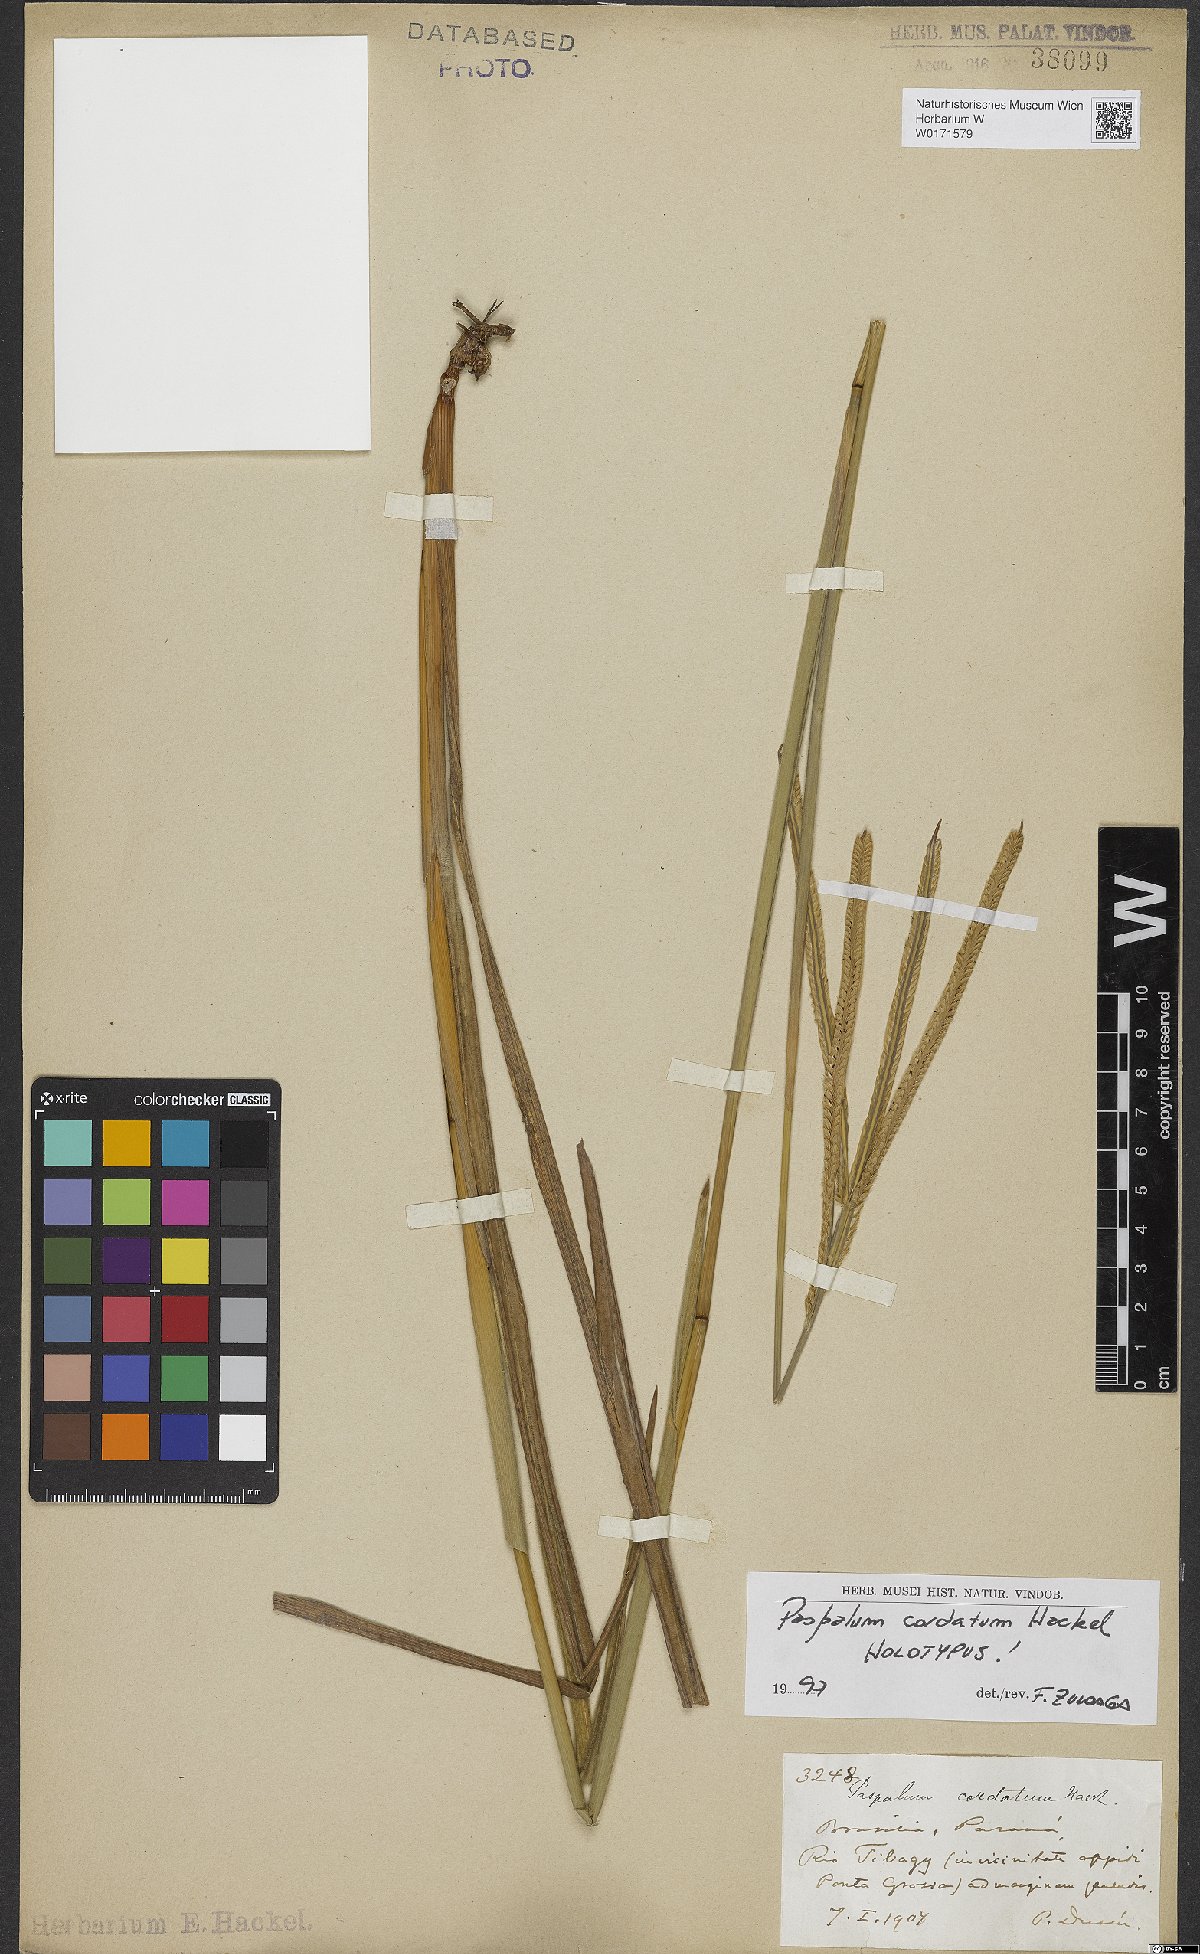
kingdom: Plantae
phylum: Tracheophyta
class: Liliopsida
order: Poales
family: Poaceae
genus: Paspalum
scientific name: Paspalum cordatum
